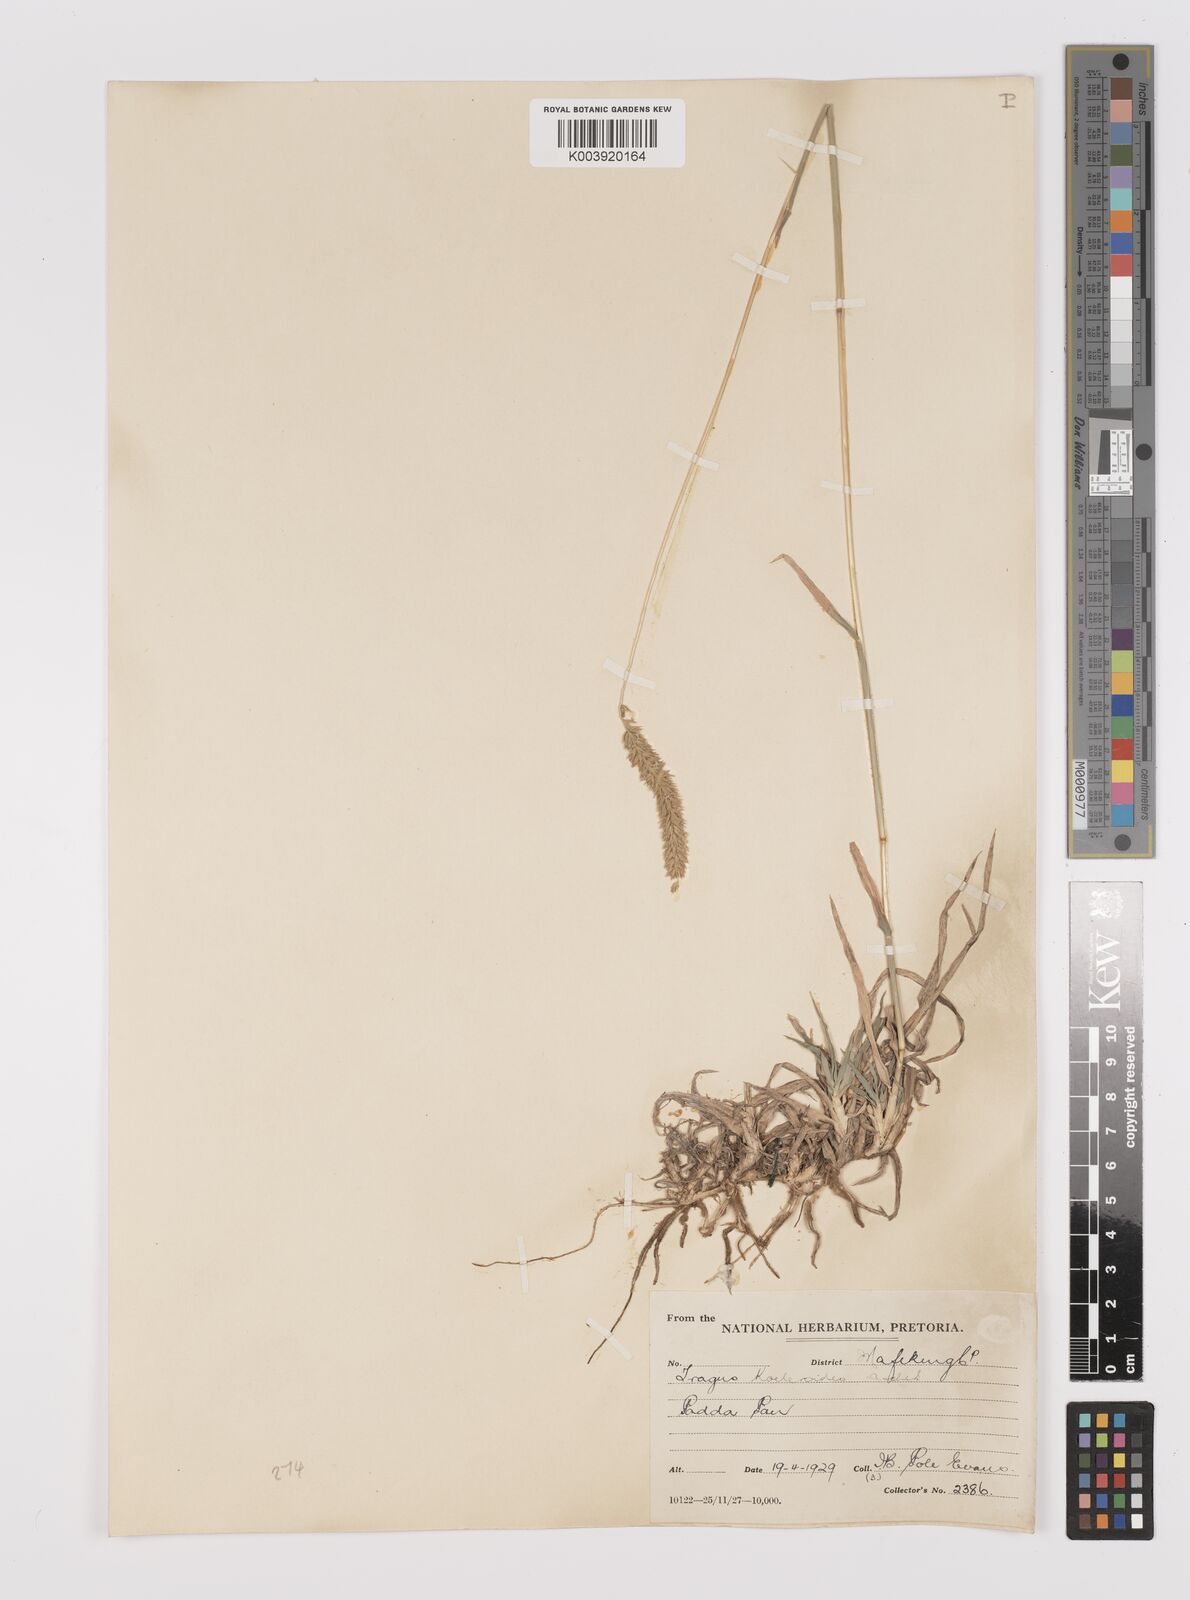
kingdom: Plantae
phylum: Tracheophyta
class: Liliopsida
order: Poales
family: Poaceae
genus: Tragus
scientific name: Tragus koelerioides
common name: Creeping carrot-seed grass
